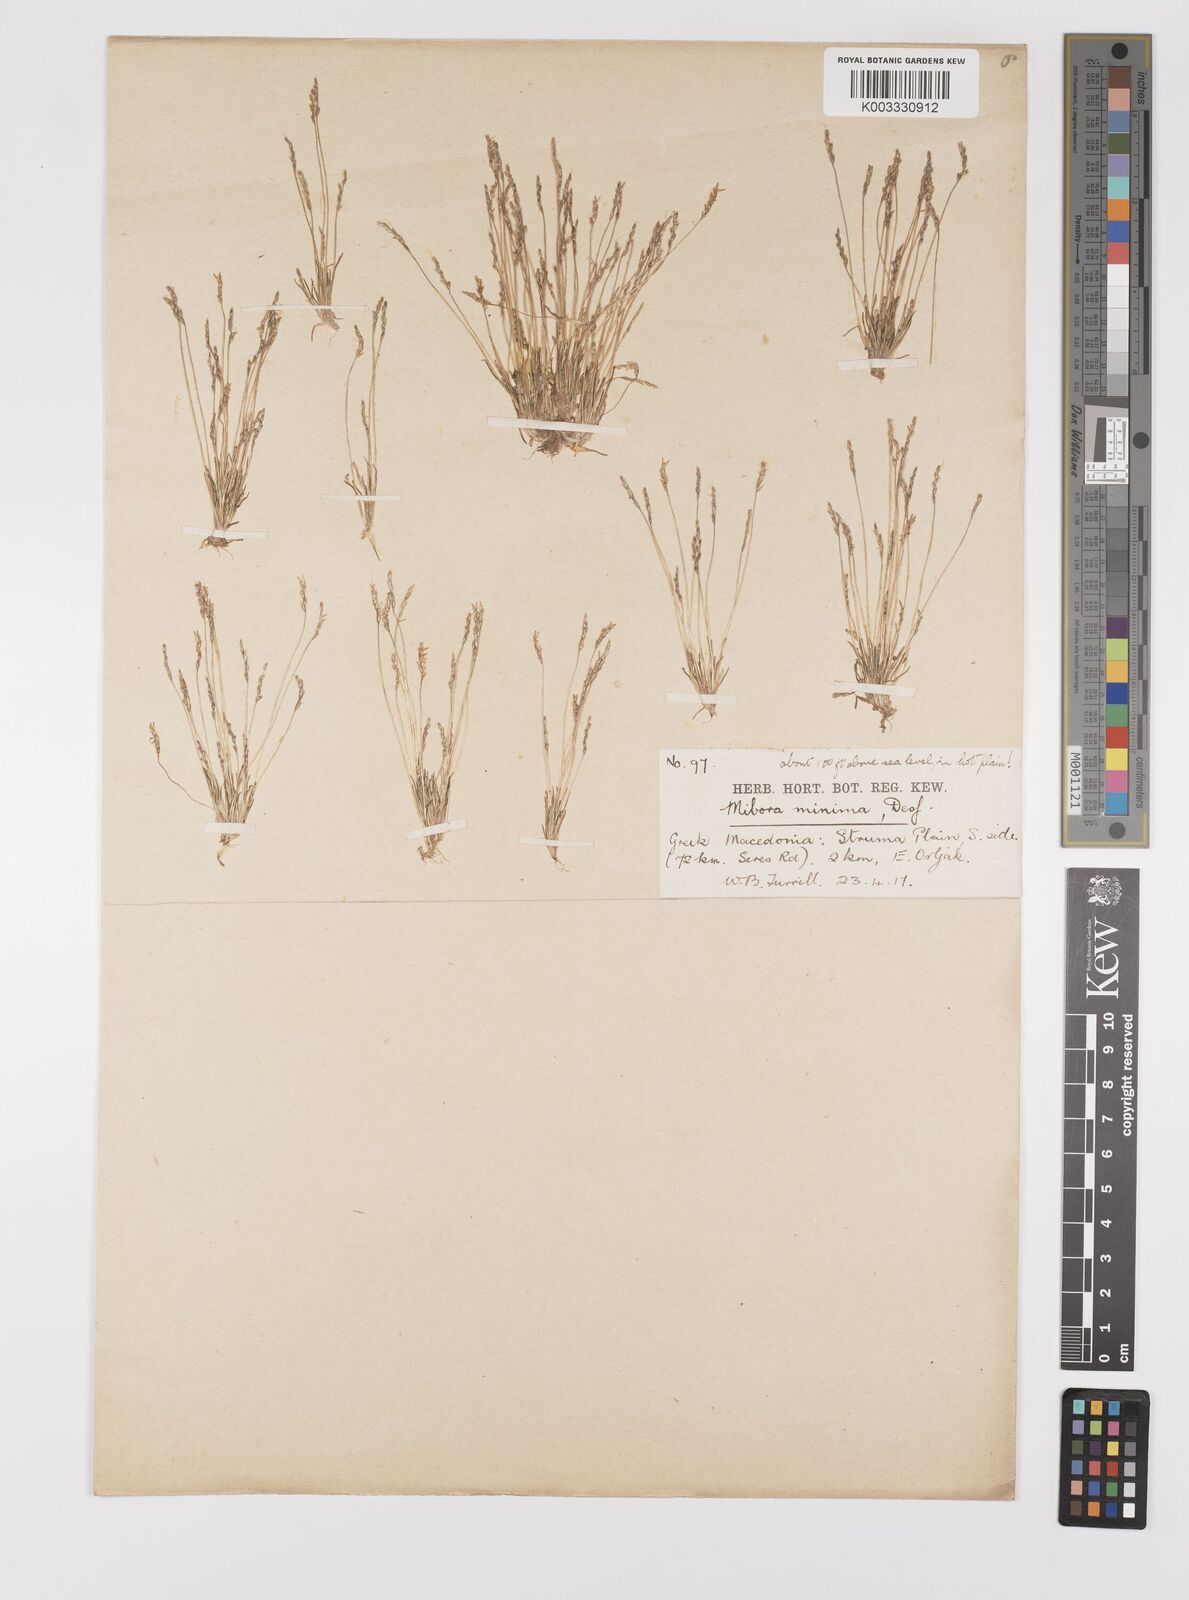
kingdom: Plantae
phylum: Tracheophyta
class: Liliopsida
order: Poales
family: Poaceae
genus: Mibora
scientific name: Mibora minima
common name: Early sand-grass
